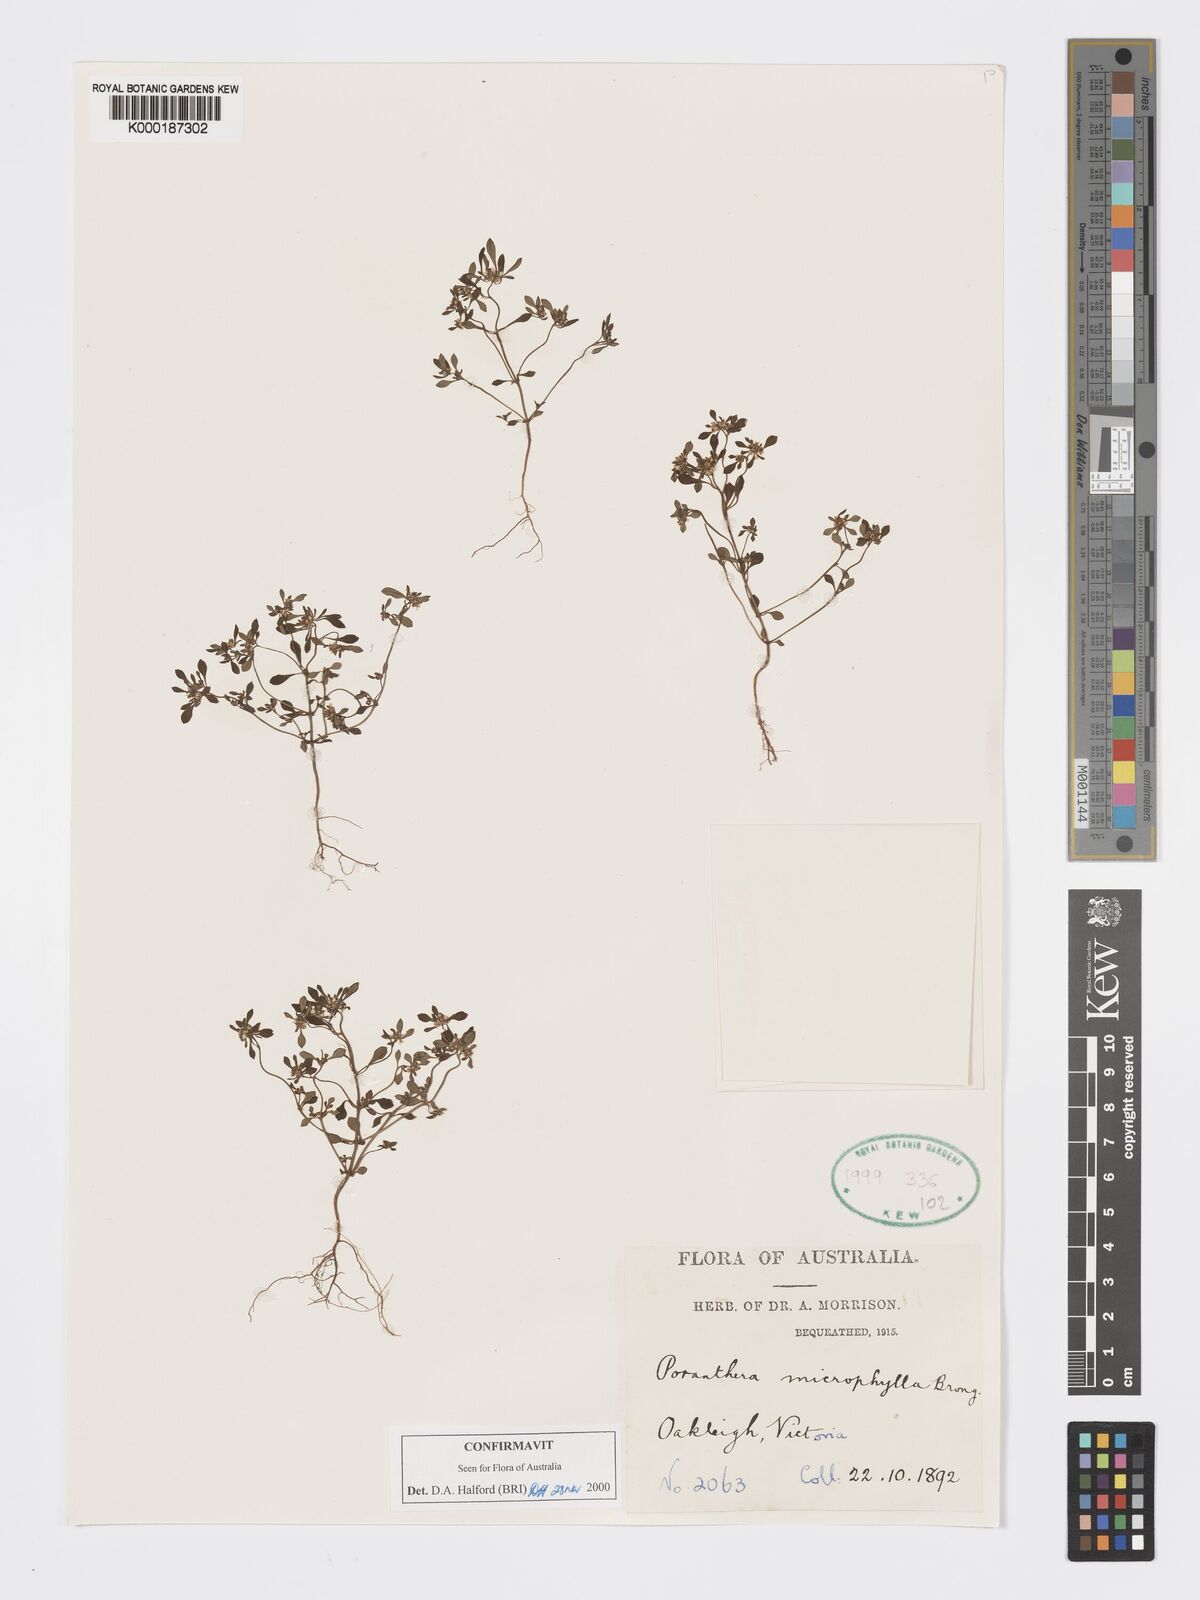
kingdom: Plantae
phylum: Tracheophyta
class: Magnoliopsida
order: Malpighiales
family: Phyllanthaceae
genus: Poranthera
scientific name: Poranthera microphylla
